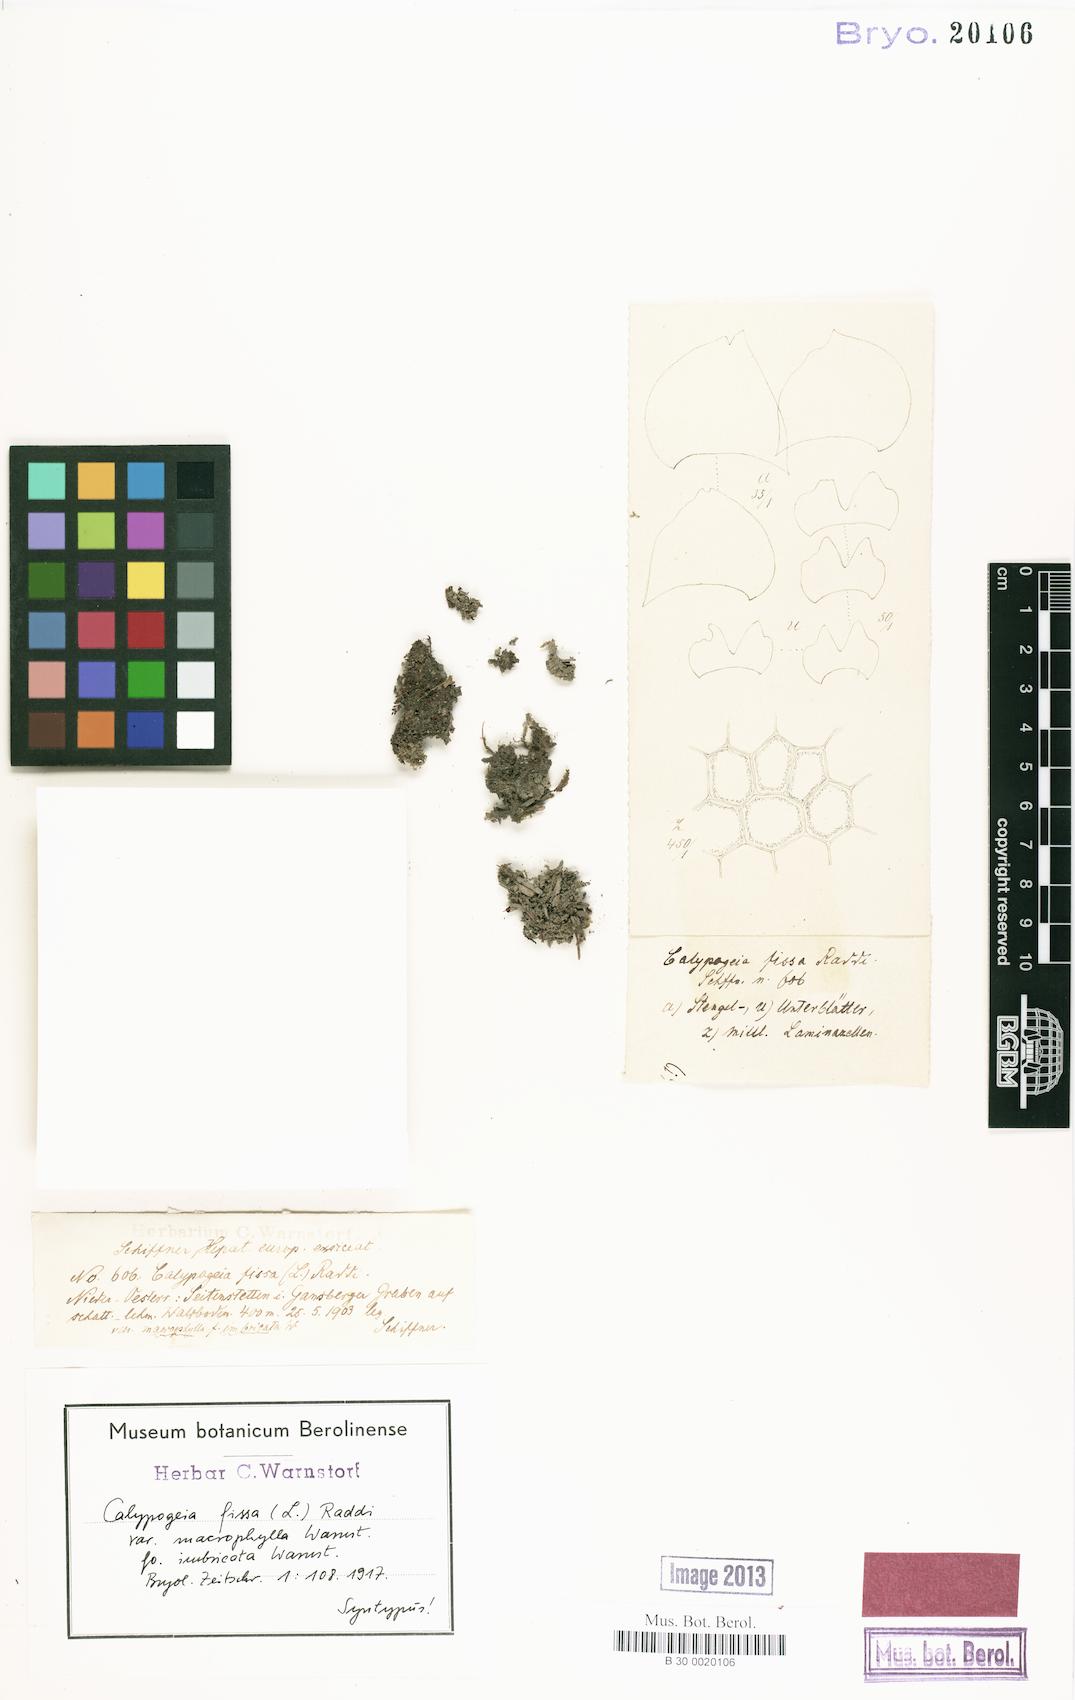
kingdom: Plantae
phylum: Marchantiophyta
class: Jungermanniopsida
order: Jungermanniales
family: Calypogeiaceae
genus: Calypogeia
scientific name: Calypogeia fissa
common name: Common pouchwort
